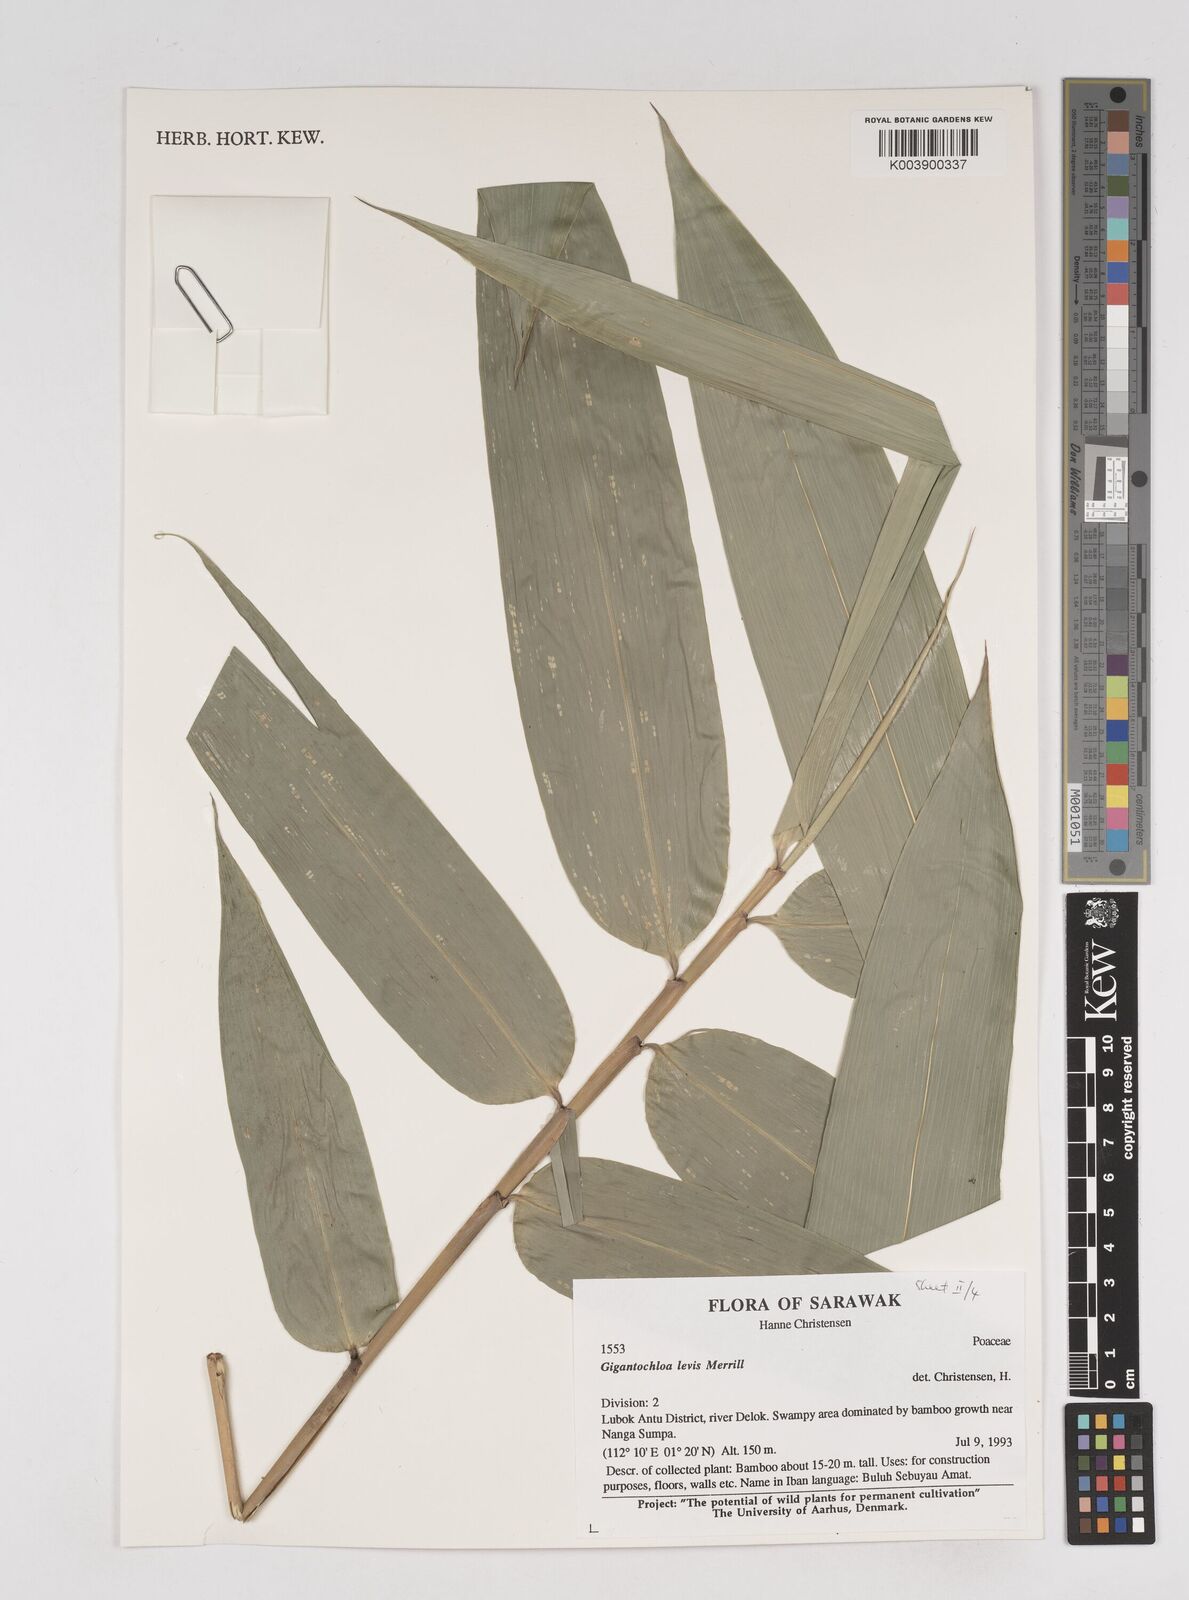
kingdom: Plantae
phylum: Tracheophyta
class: Liliopsida
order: Poales
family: Poaceae
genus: Gigantochloa
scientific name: Gigantochloa levis
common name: Smooth-shoot gigantochloa
